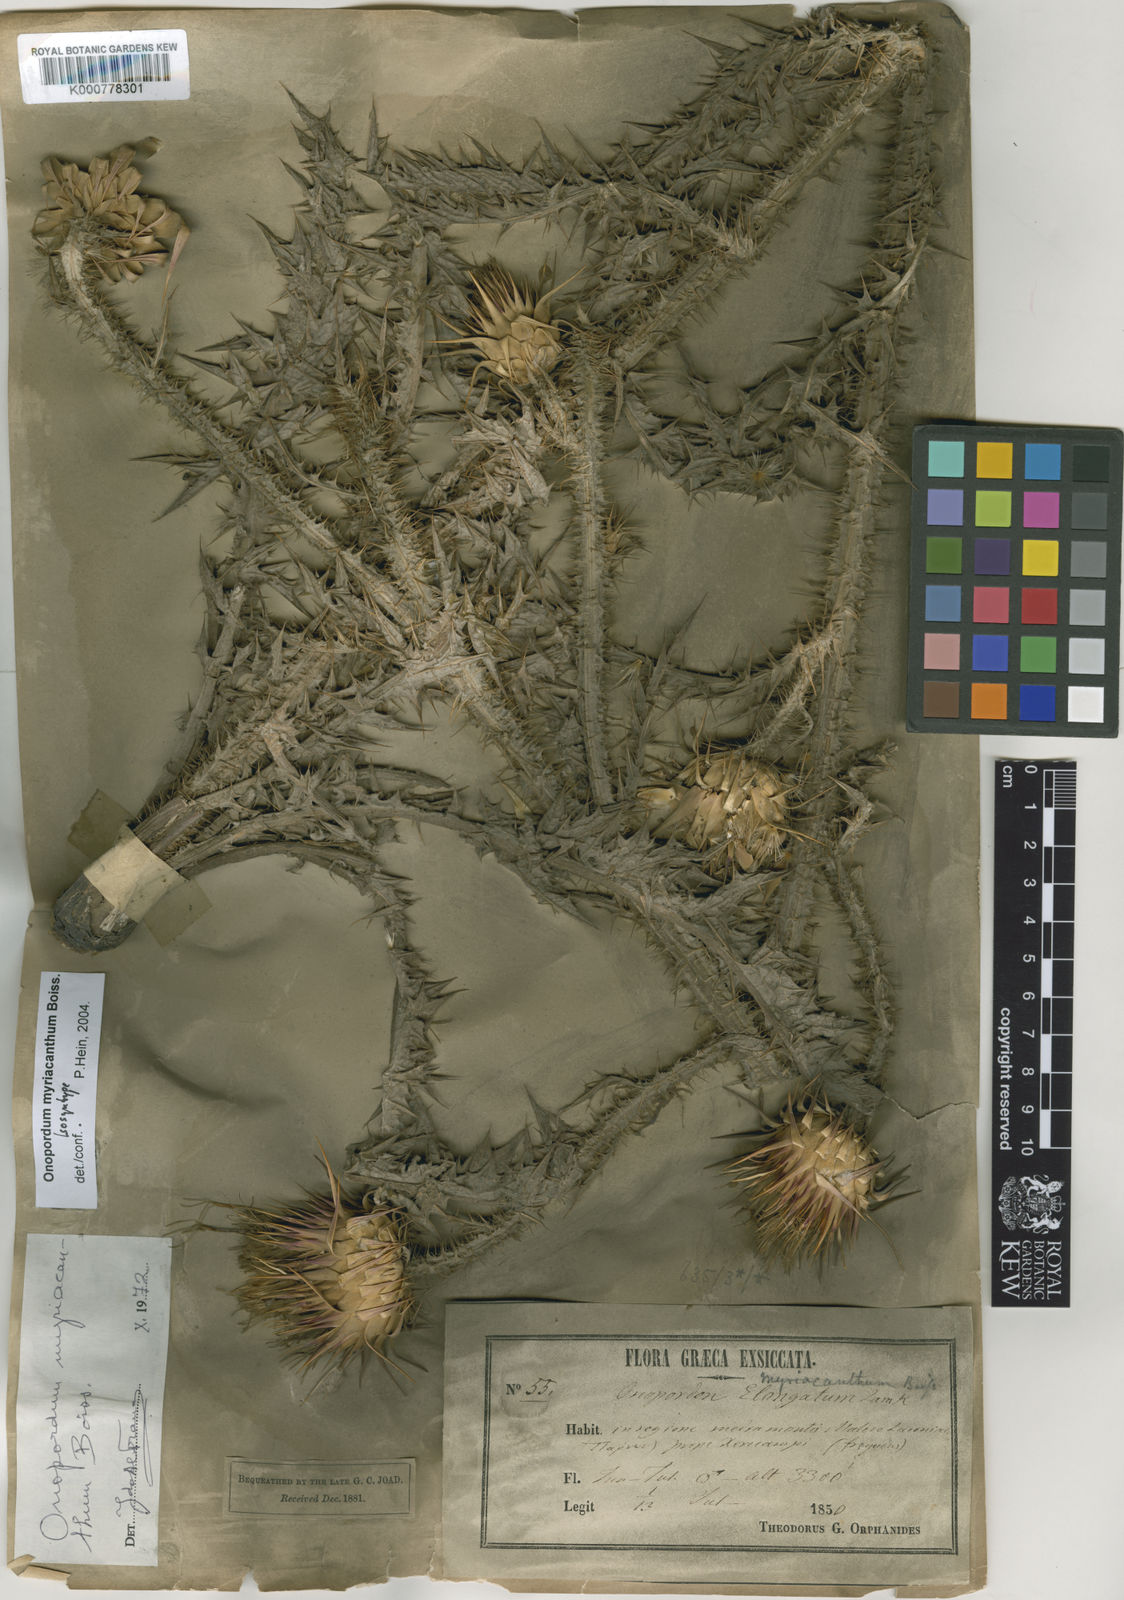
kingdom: Plantae
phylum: Tracheophyta
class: Magnoliopsida
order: Asterales
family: Asteraceae
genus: Onopordum
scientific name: Onopordum myriacanthum
